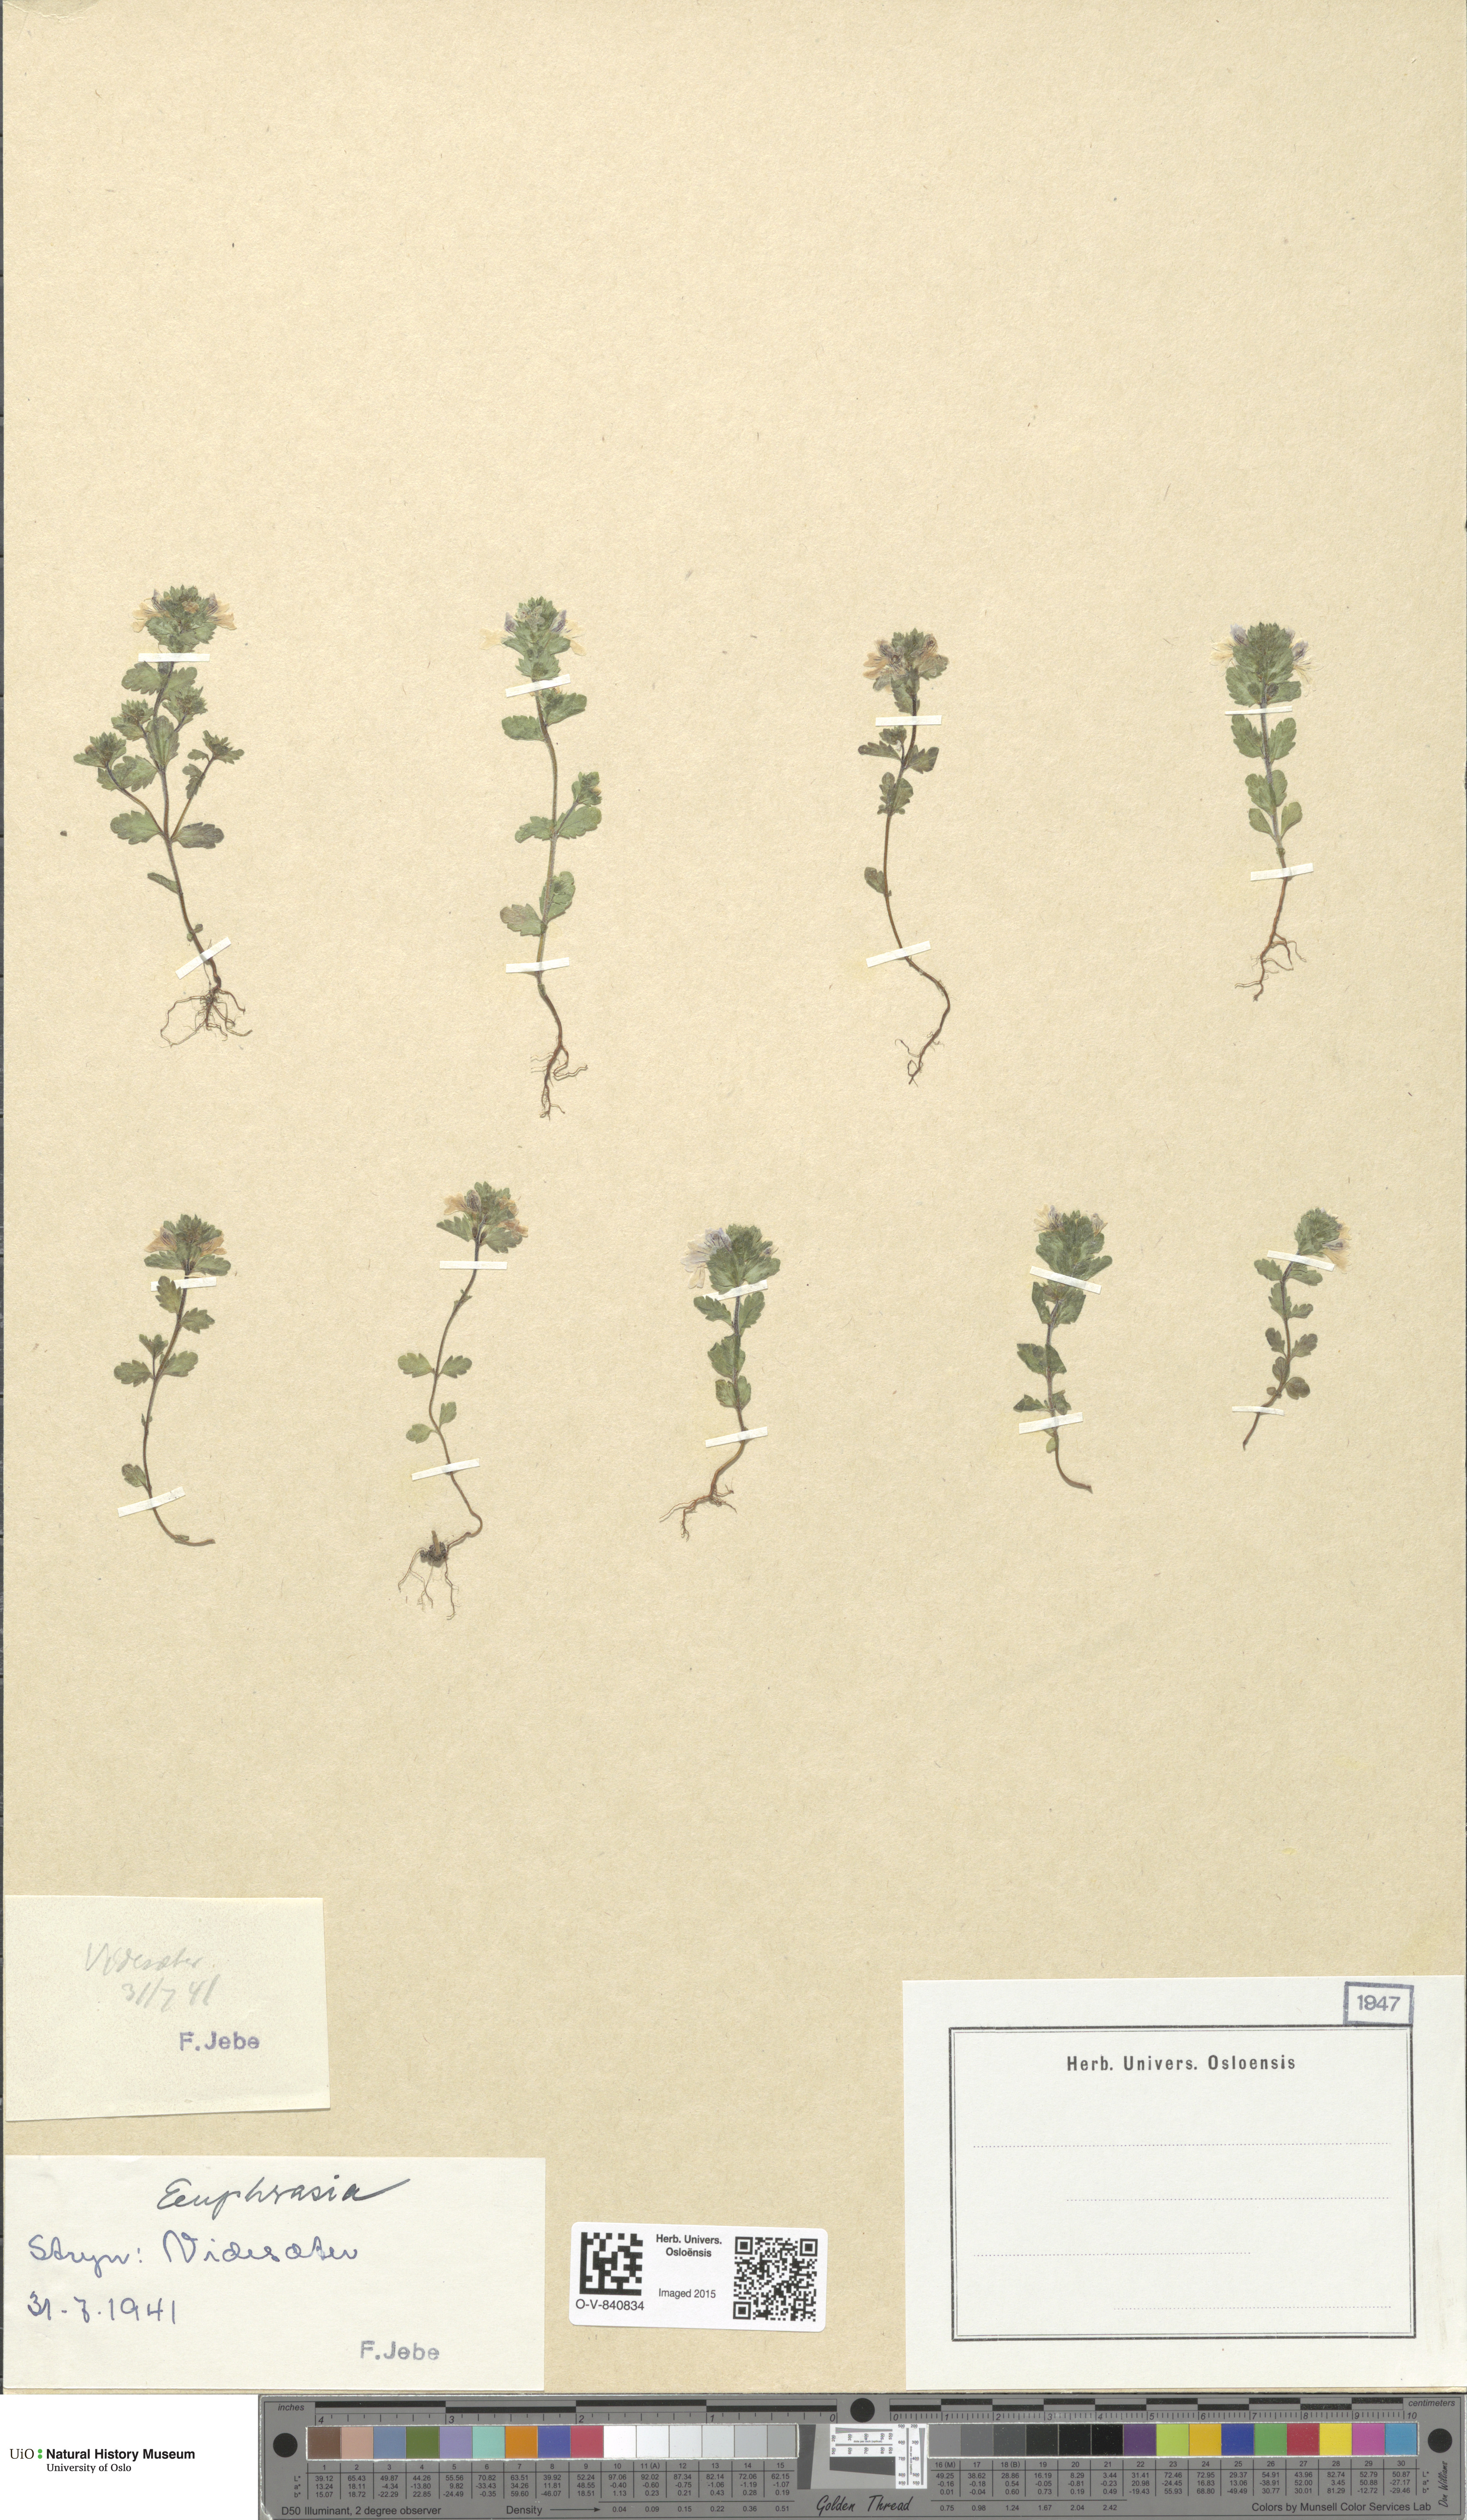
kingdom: Plantae
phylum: Tracheophyta
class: Magnoliopsida
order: Lamiales
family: Orobanchaceae
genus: Euphrasia
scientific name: Euphrasia
